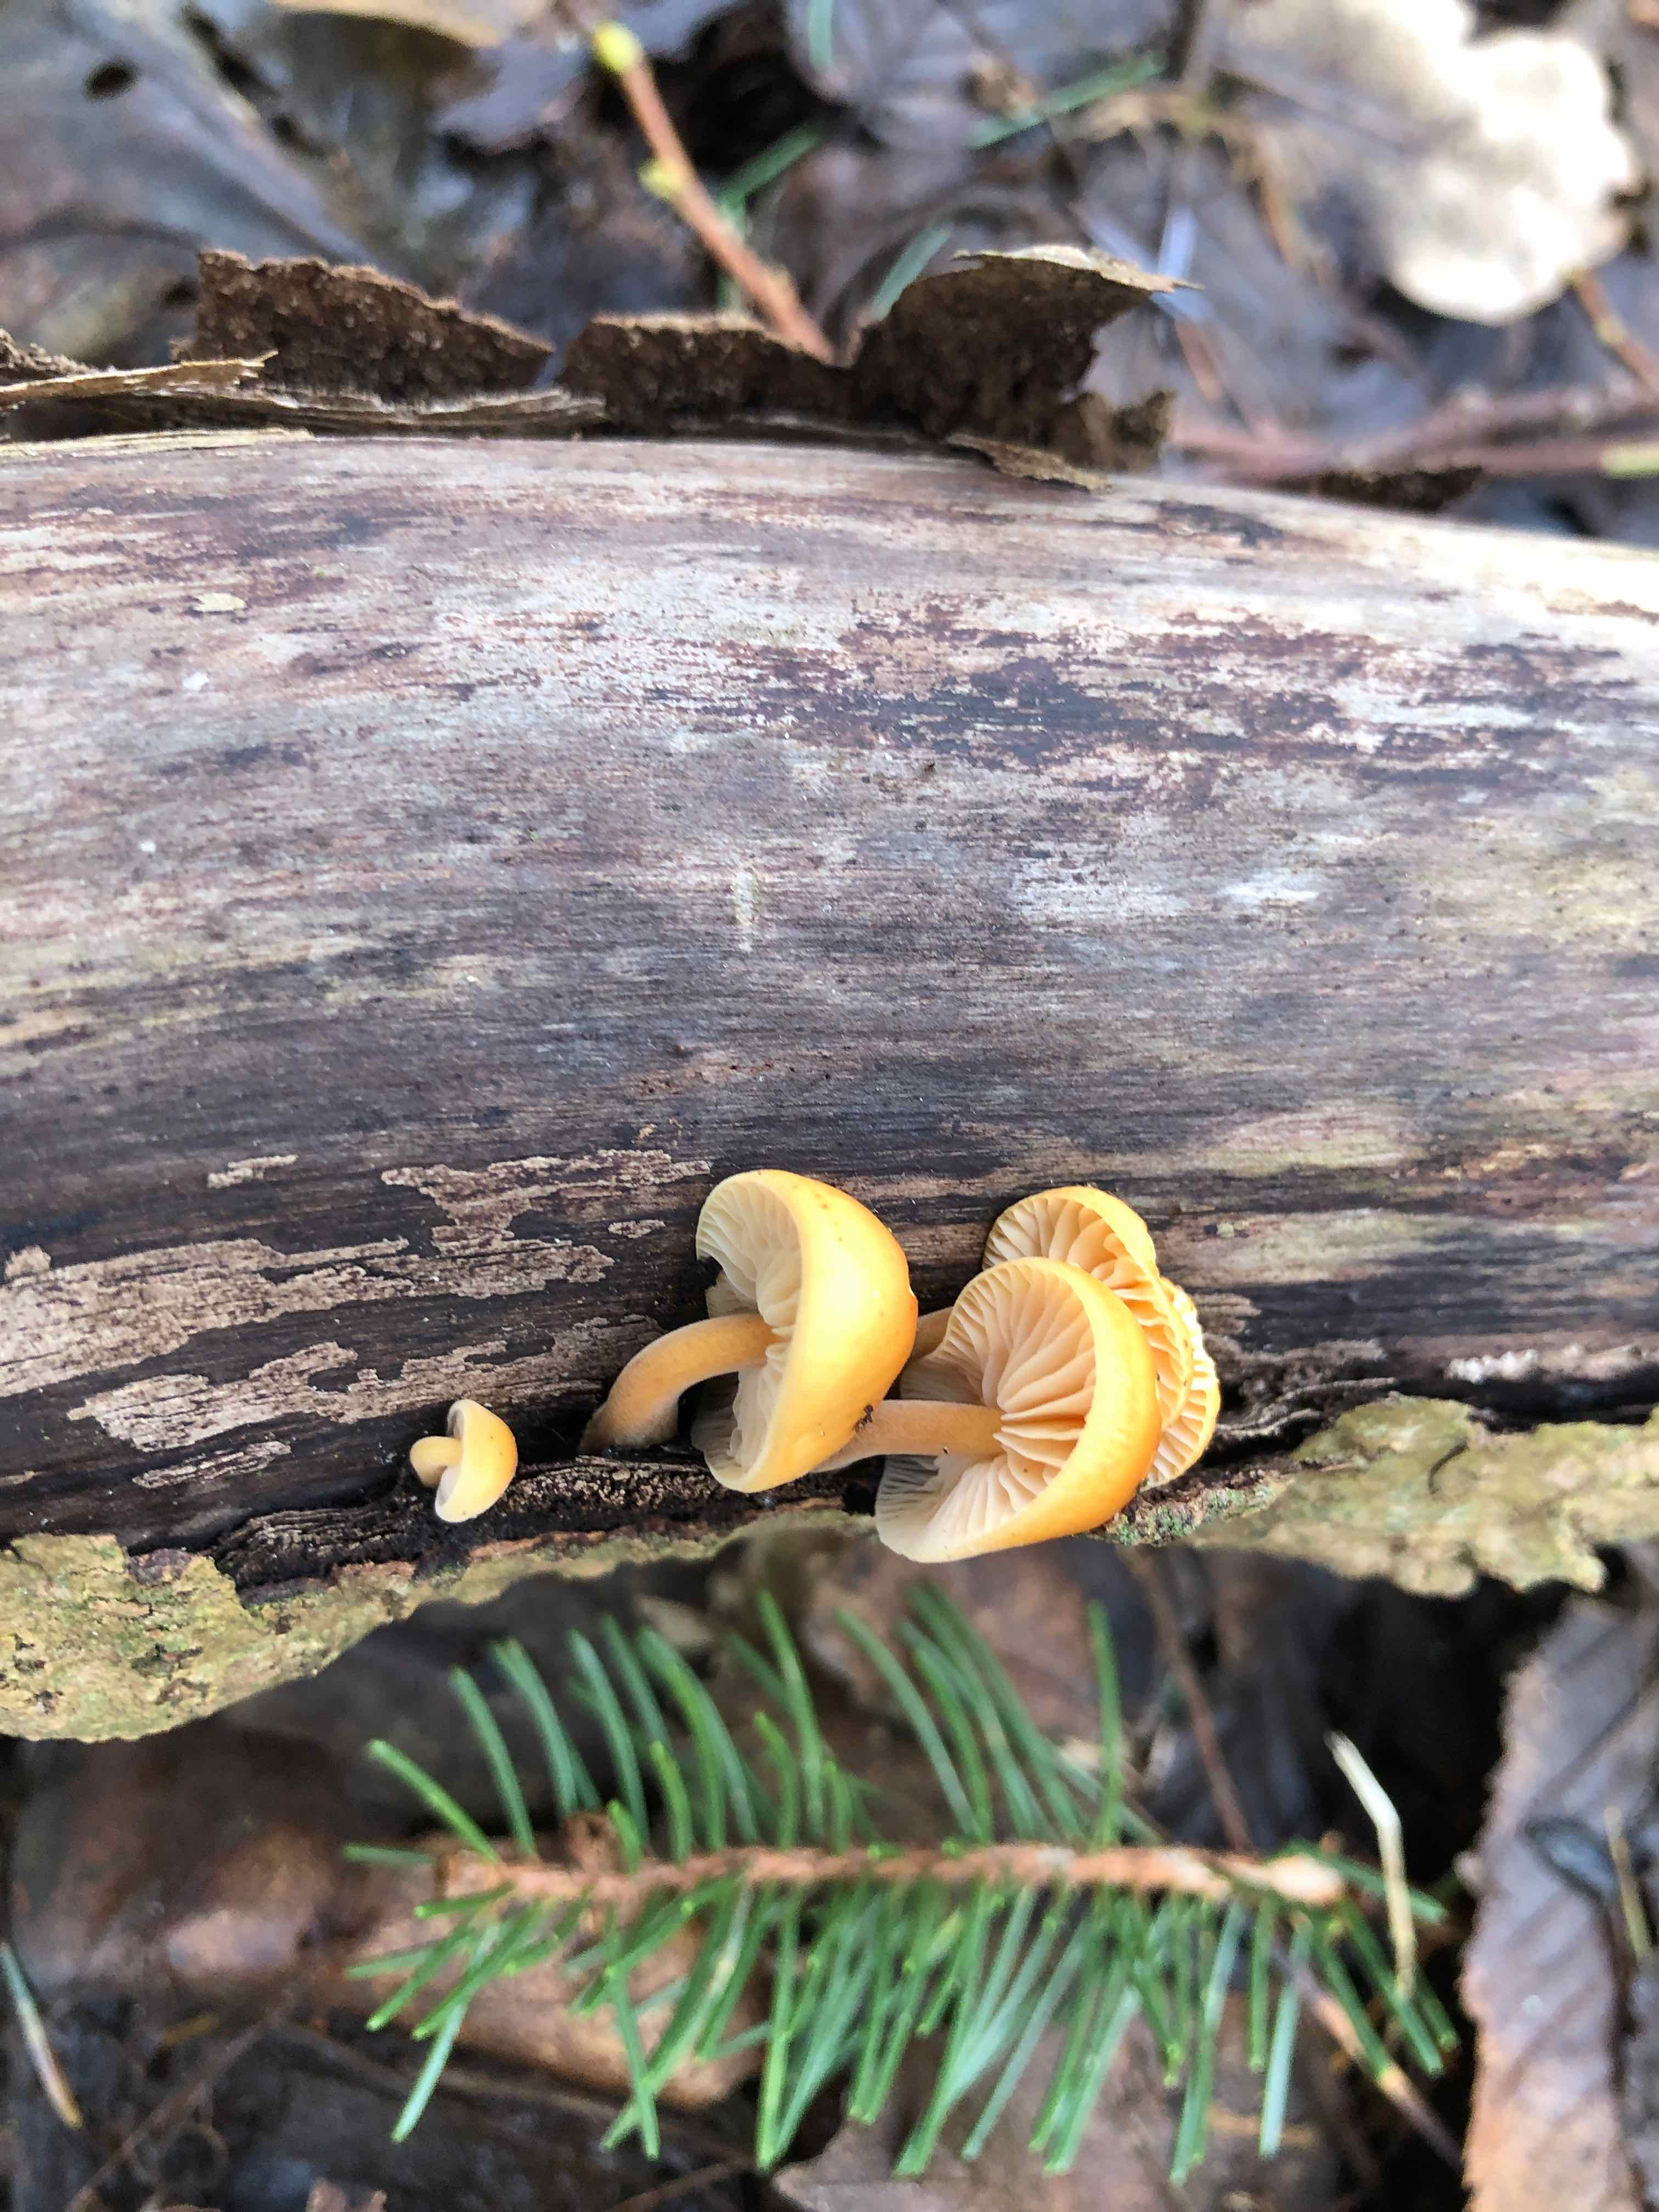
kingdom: Fungi
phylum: Basidiomycota
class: Agaricomycetes
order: Agaricales
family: Physalacriaceae
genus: Flammulina
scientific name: Flammulina velutipes
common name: gul fløjlsfod
